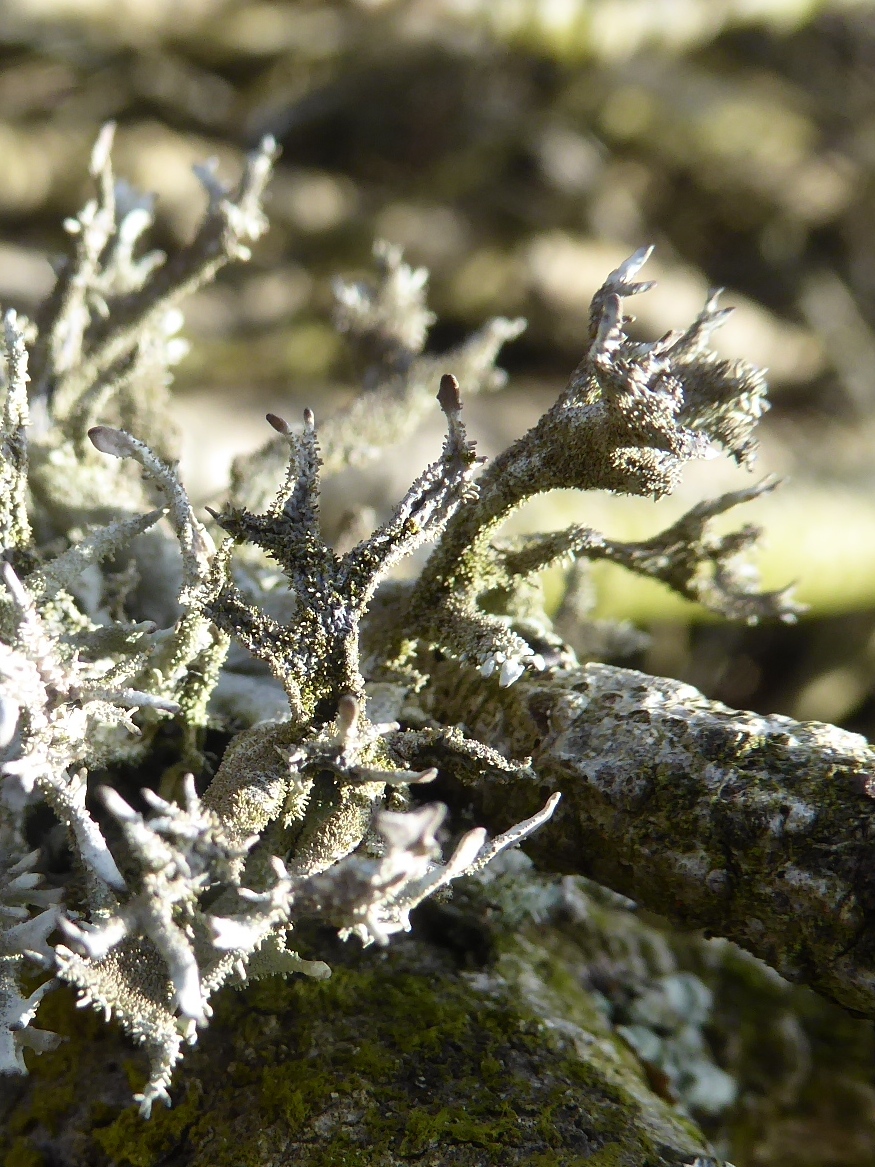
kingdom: Fungi
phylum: Ascomycota
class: Lecanoromycetes
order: Lecanorales
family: Parmeliaceae
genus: Pseudevernia
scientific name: Pseudevernia furfuracea
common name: grå fyrrelav
